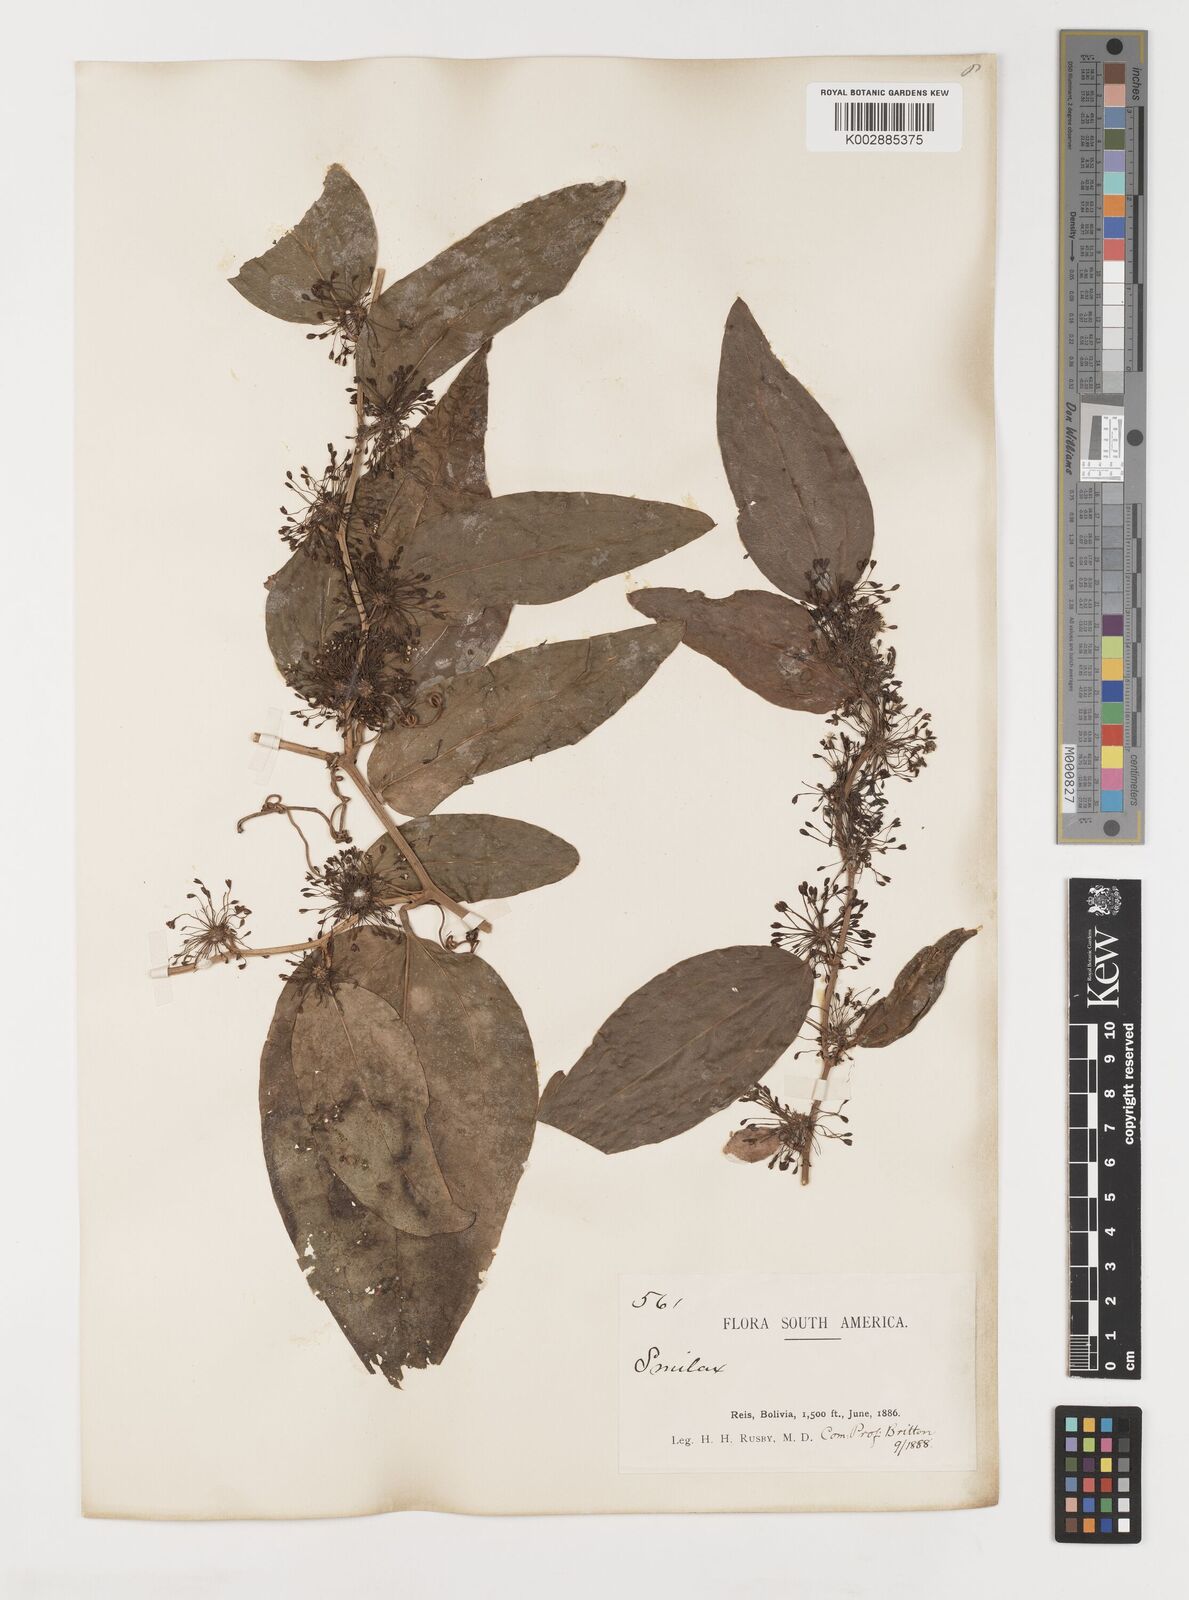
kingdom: Plantae
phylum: Tracheophyta
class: Liliopsida
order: Liliales
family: Smilacaceae
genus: Smilax
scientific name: Smilax
